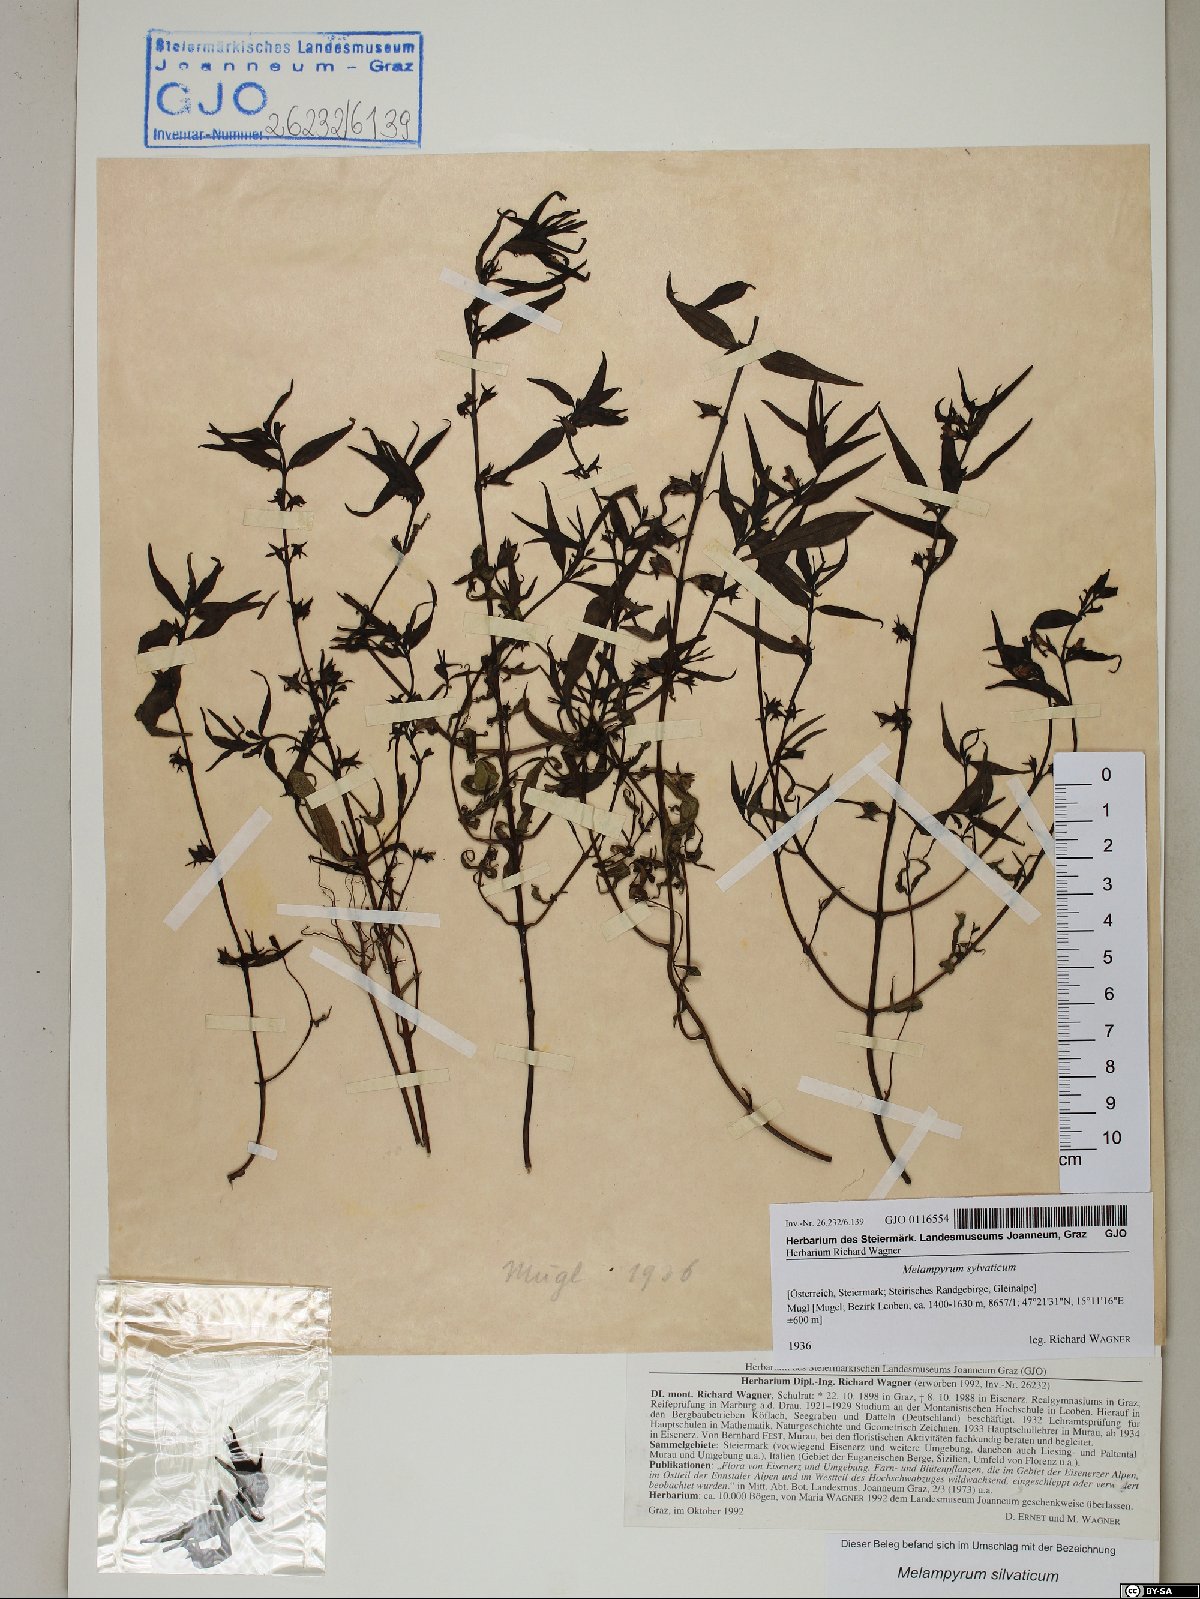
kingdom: Plantae
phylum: Tracheophyta
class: Magnoliopsida
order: Lamiales
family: Orobanchaceae
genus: Melampyrum
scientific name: Melampyrum sylvaticum
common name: Small cow-wheat
